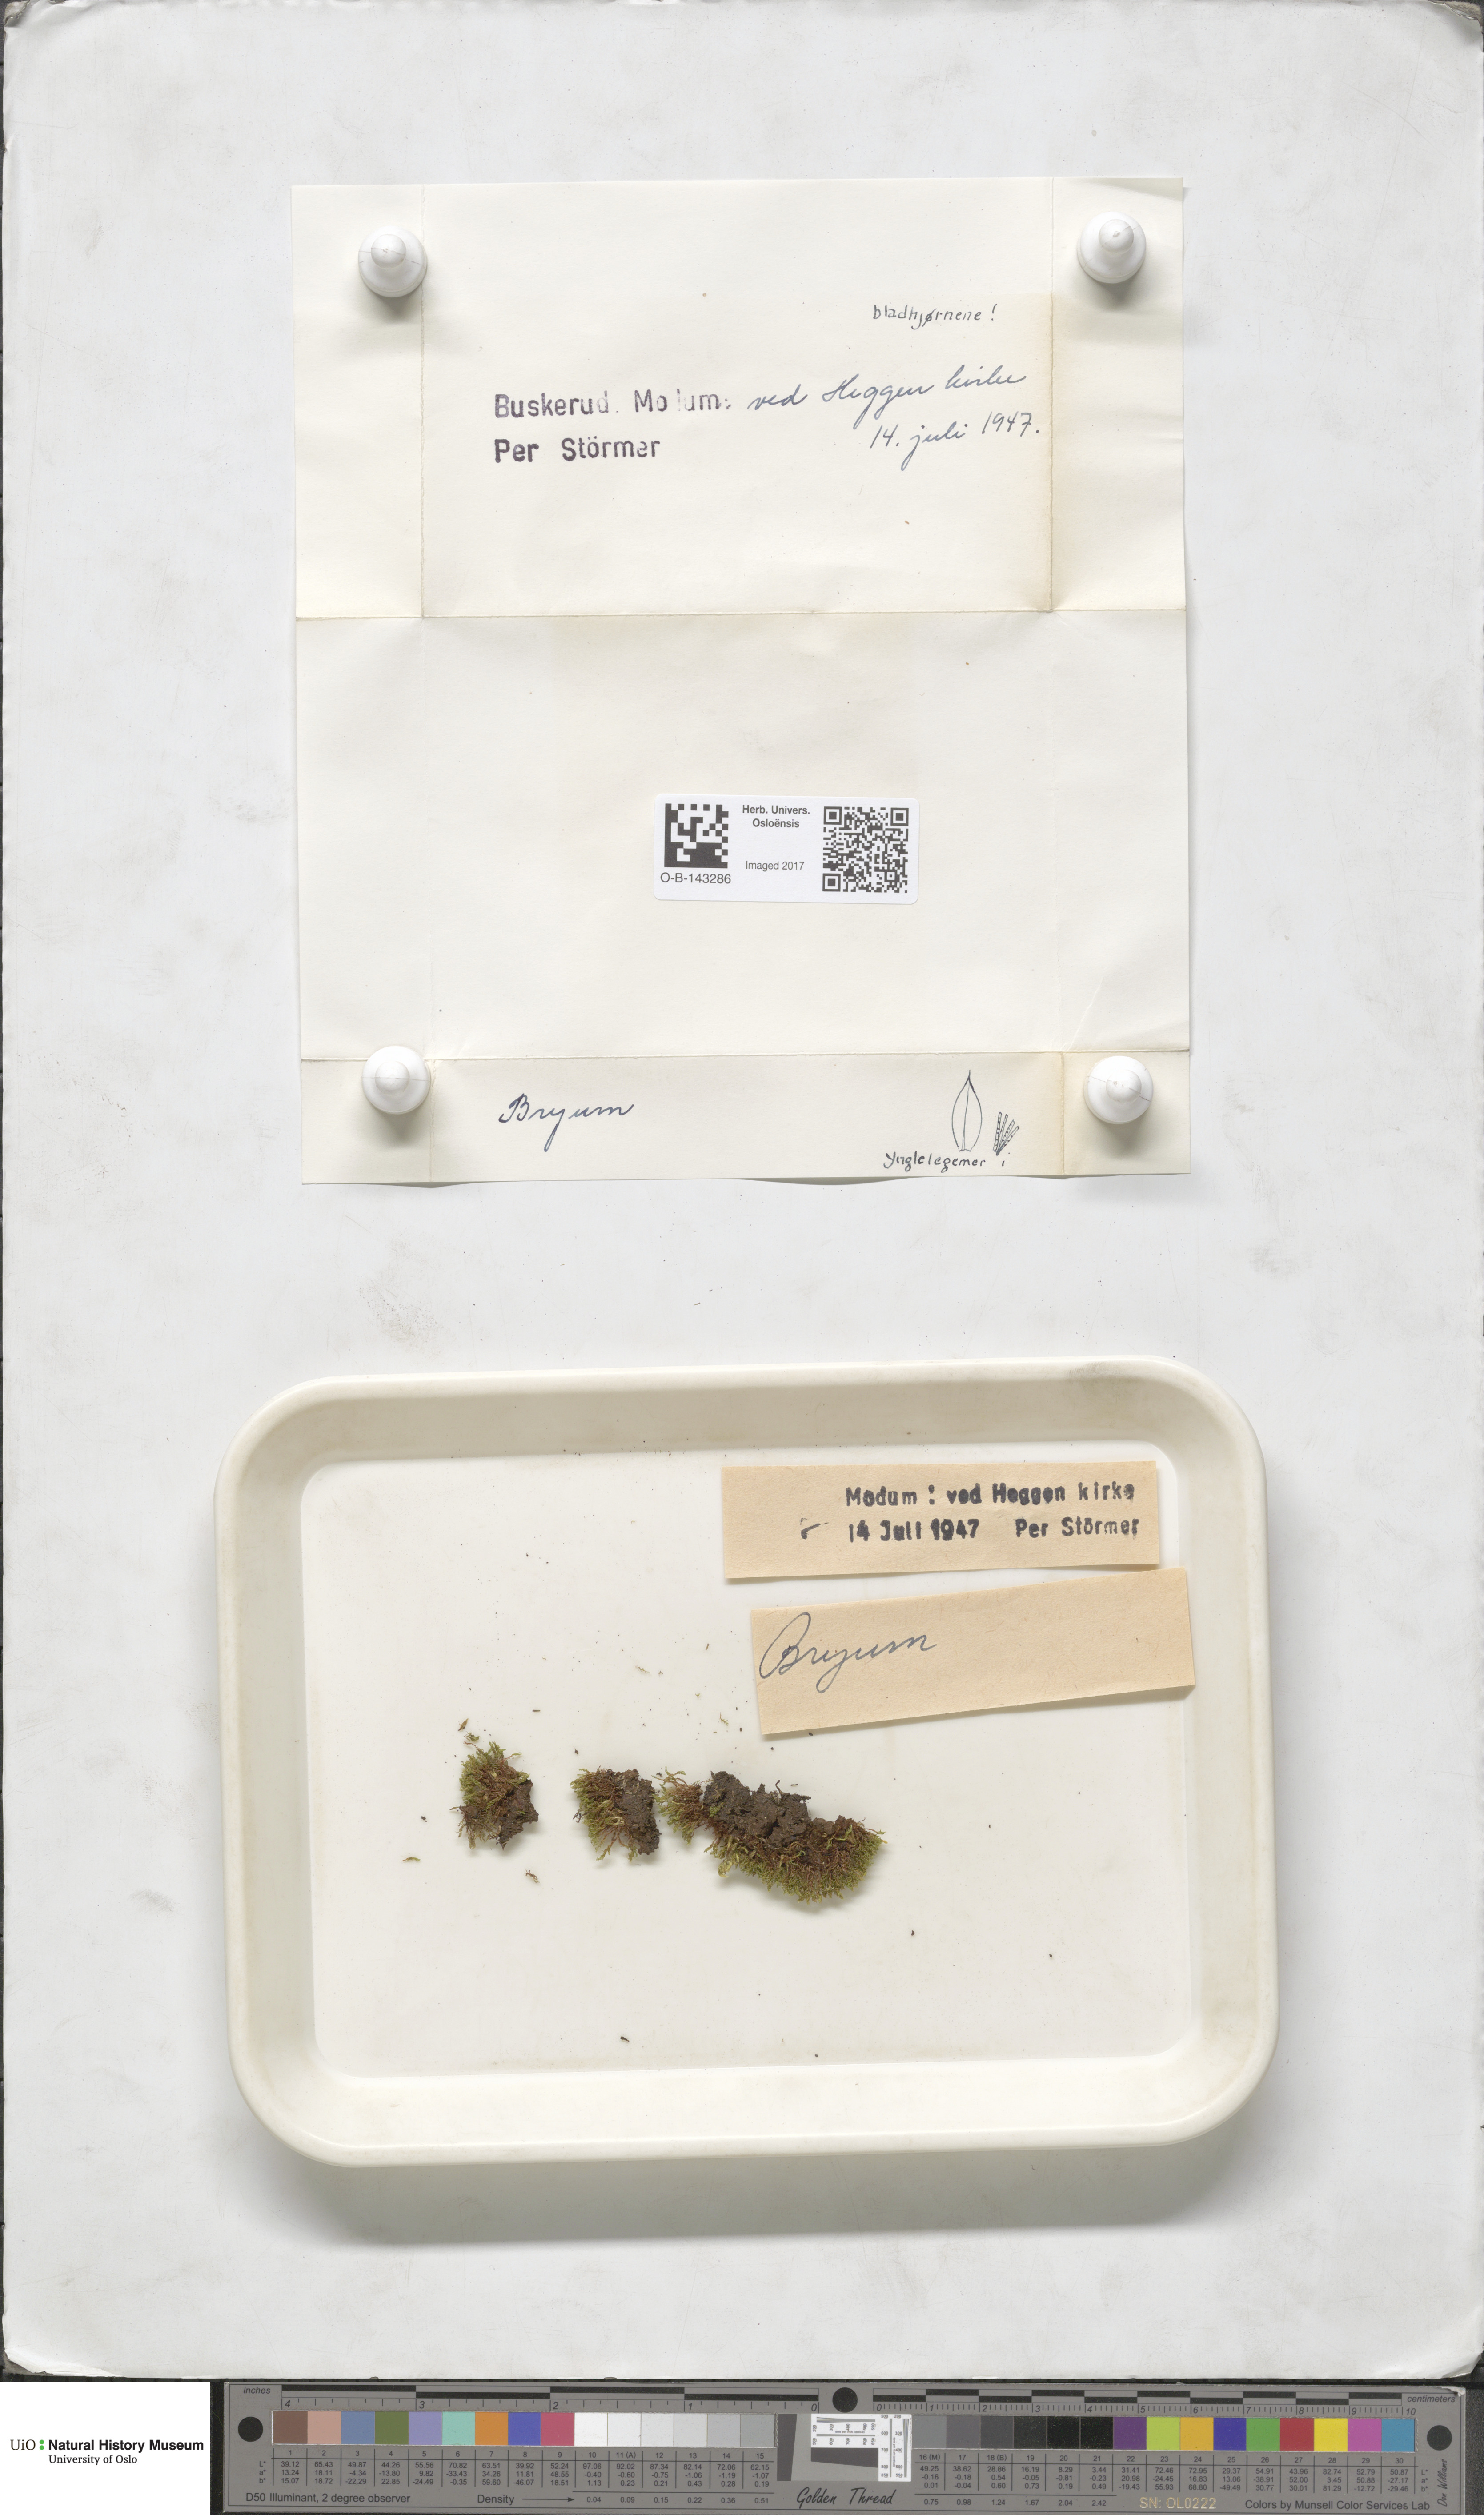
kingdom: Plantae
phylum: Bryophyta
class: Bryopsida
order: Bryales
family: Bryaceae
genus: Bryum
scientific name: Bryum
